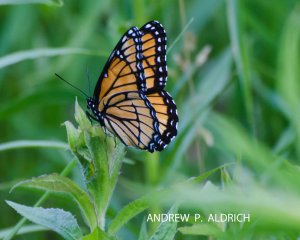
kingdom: Animalia
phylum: Arthropoda
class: Insecta
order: Lepidoptera
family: Nymphalidae
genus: Limenitis
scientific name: Limenitis archippus
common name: Viceroy
